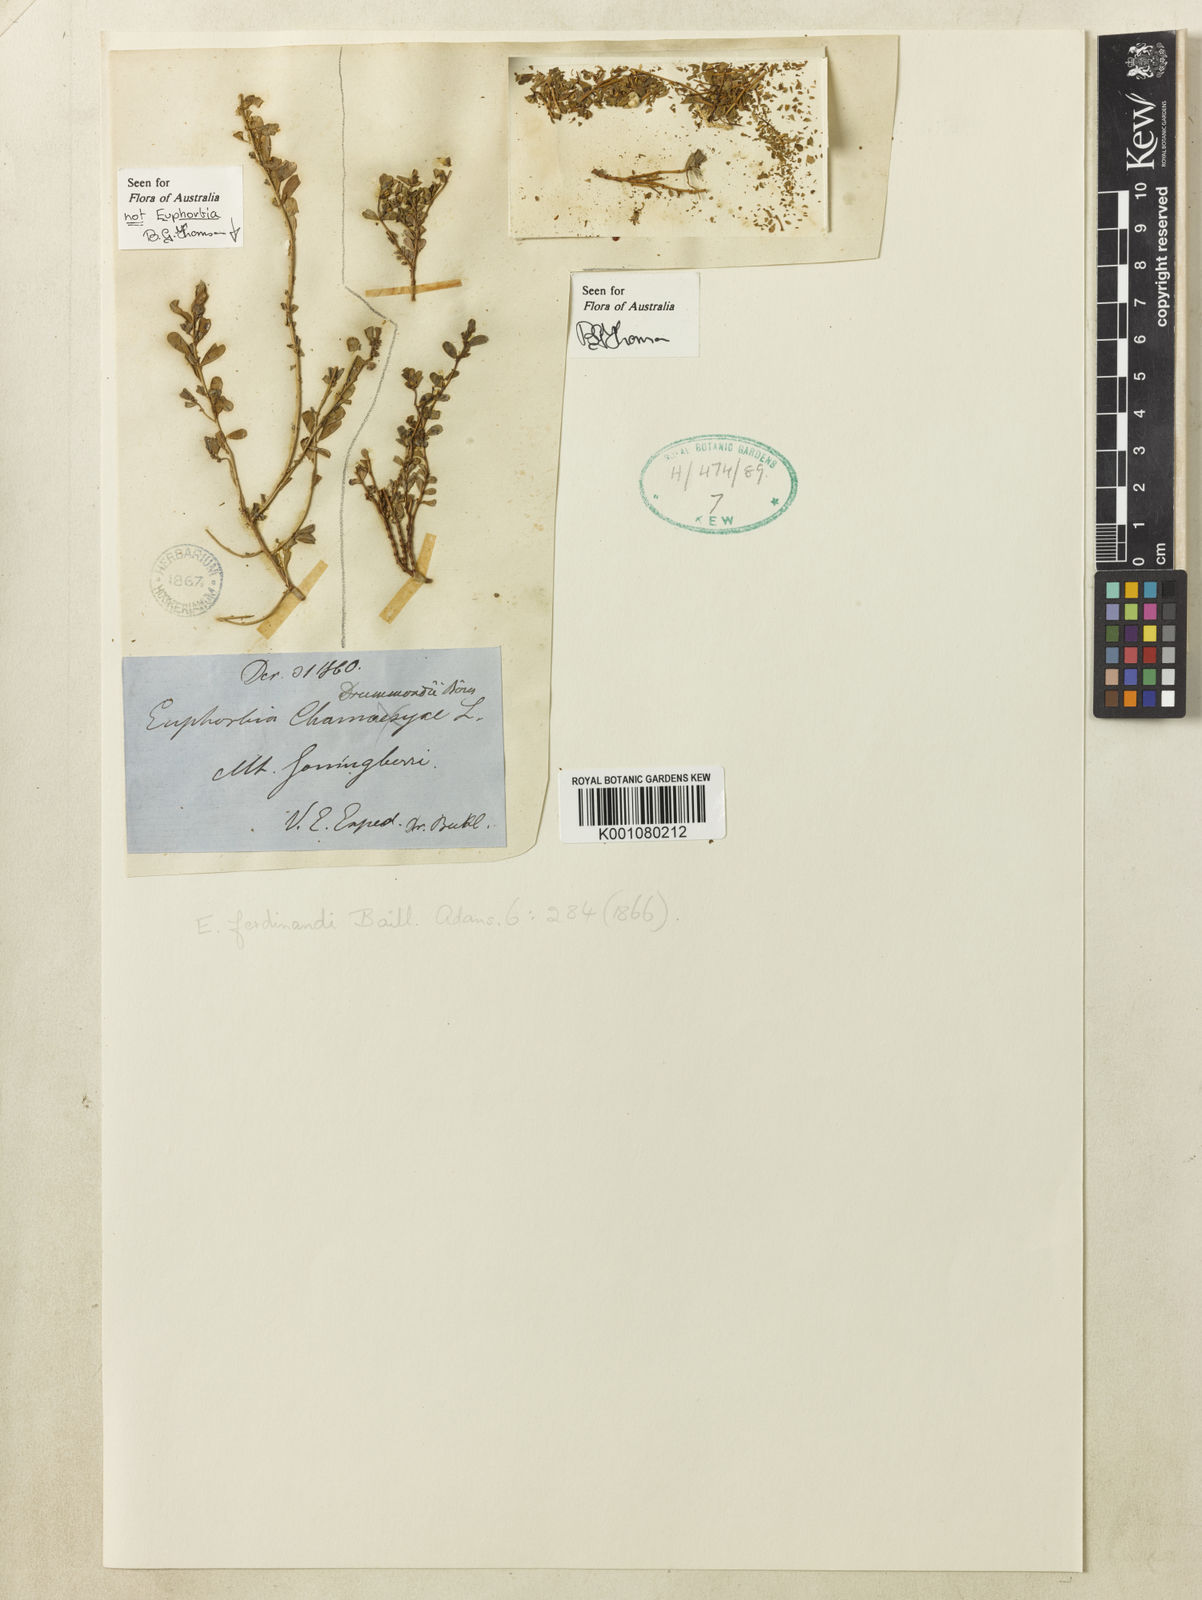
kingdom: Plantae
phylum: Tracheophyta
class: Magnoliopsida
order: Malpighiales
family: Euphorbiaceae
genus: Euphorbia
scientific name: Euphorbia drummondii
